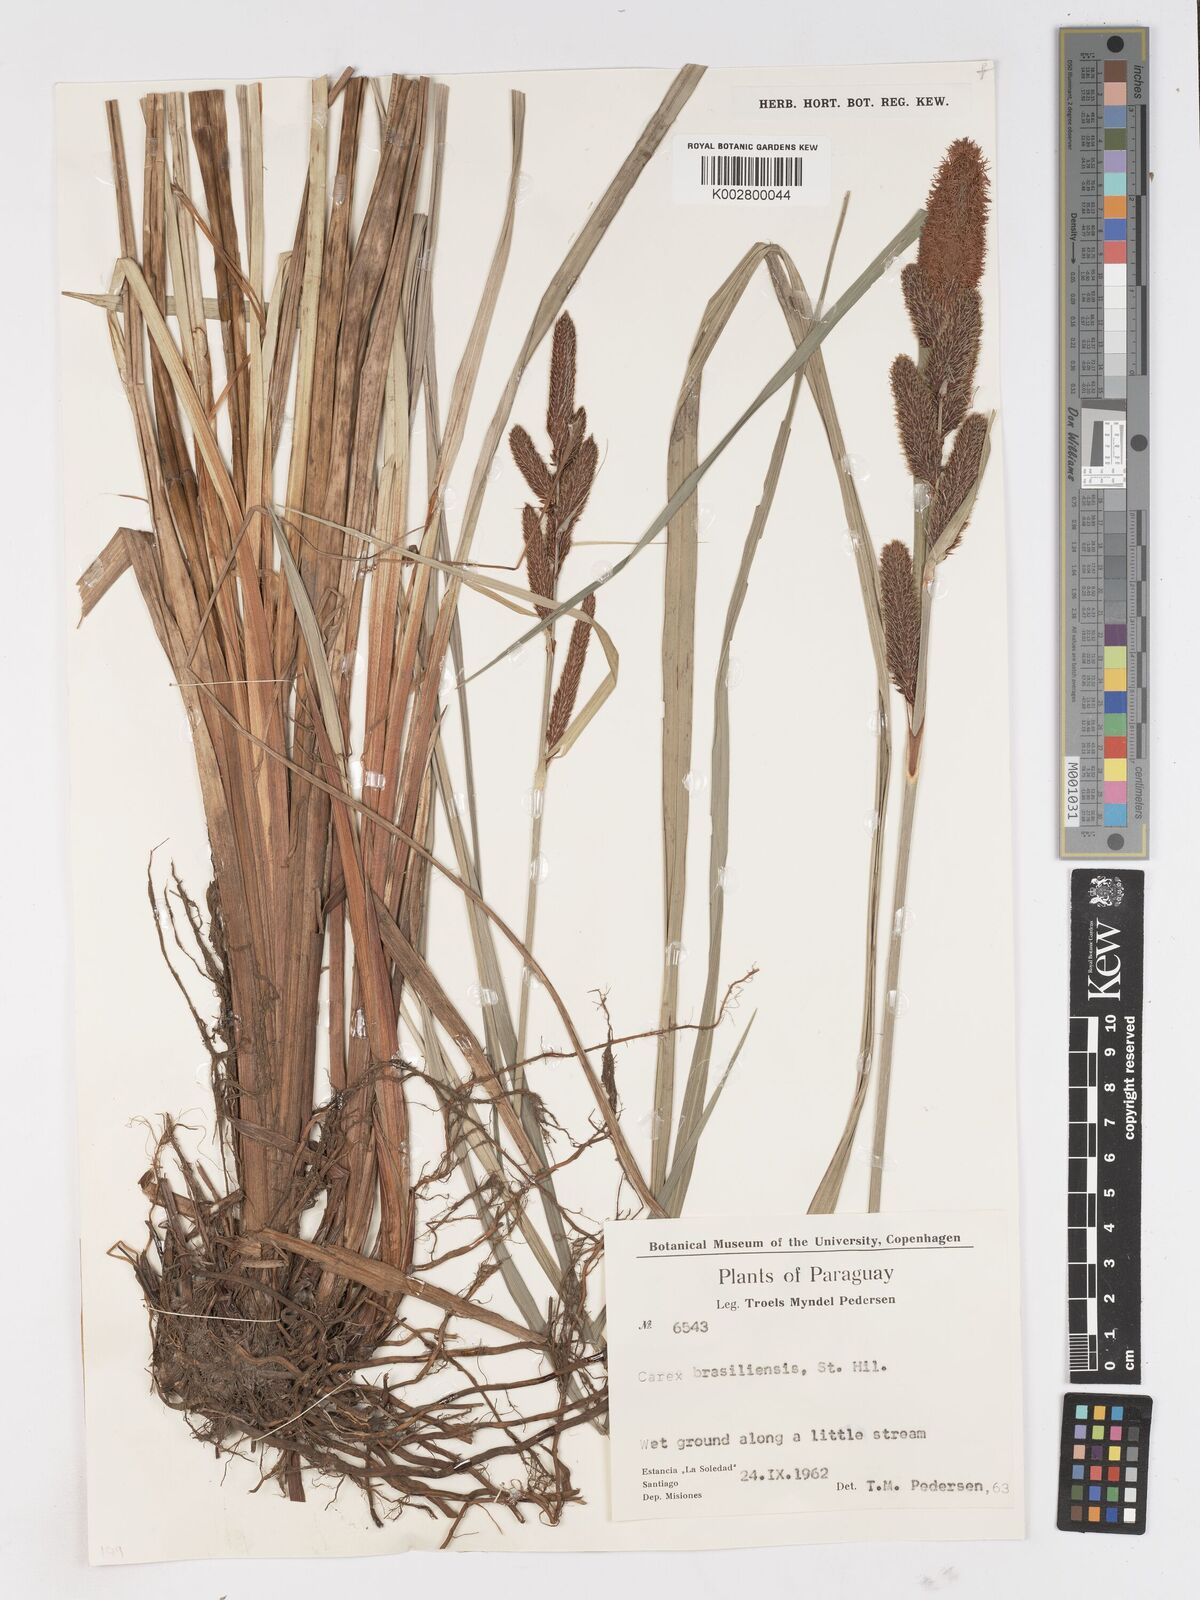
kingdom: Plantae
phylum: Tracheophyta
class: Liliopsida
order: Poales
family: Cyperaceae
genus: Carex
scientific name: Carex brasiliensis
